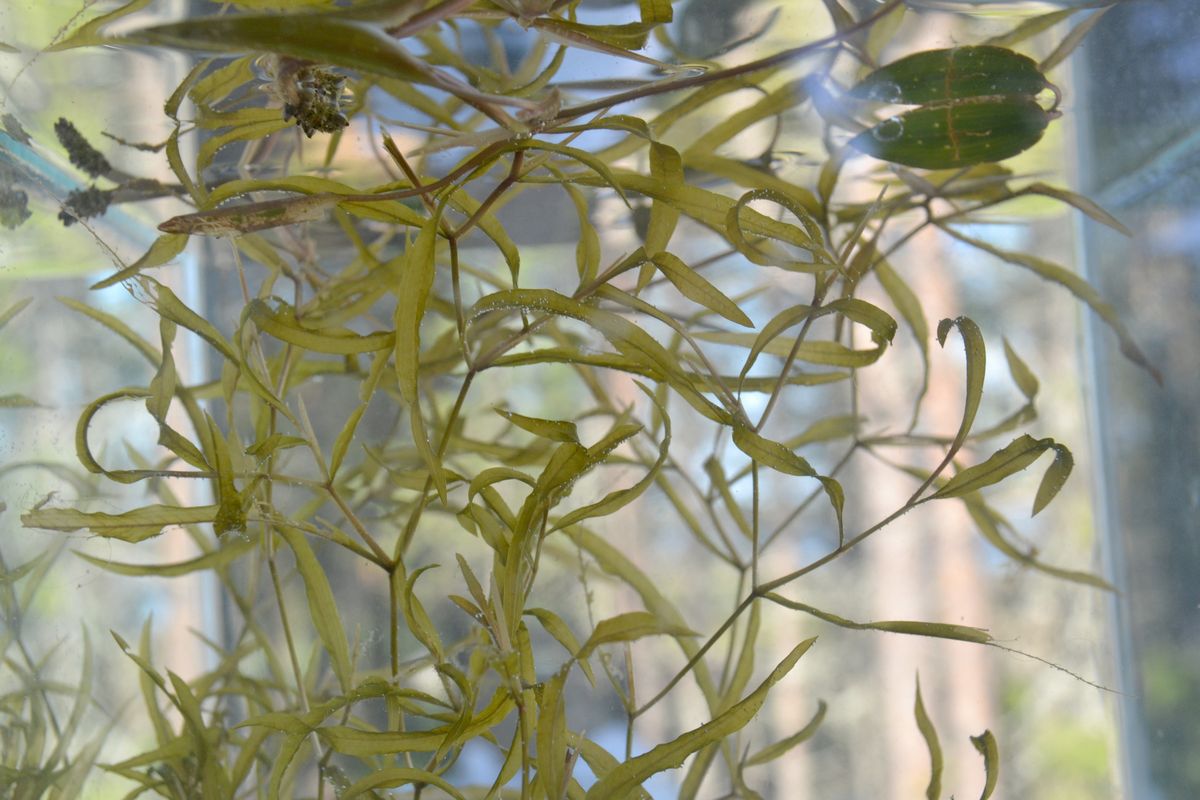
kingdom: Plantae
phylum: Tracheophyta
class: Liliopsida
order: Alismatales
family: Potamogetonaceae
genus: Potamogeton
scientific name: Potamogeton gramineus
